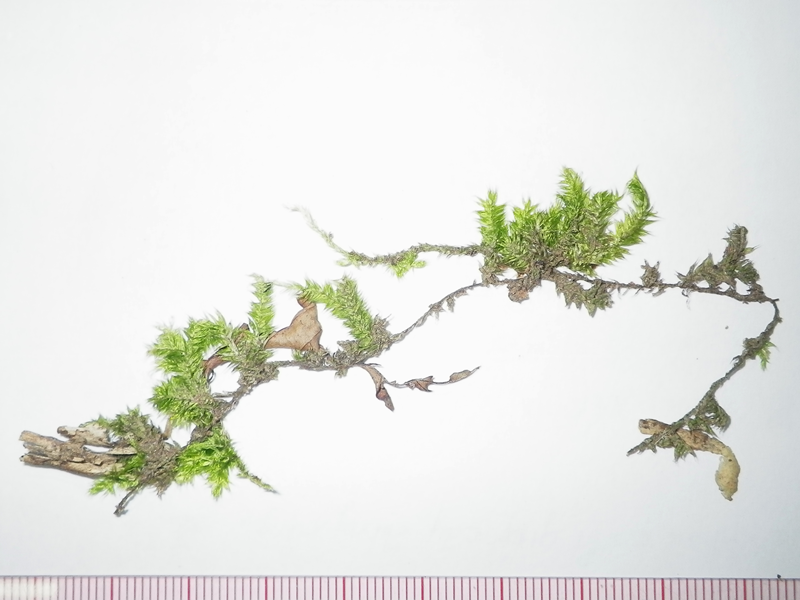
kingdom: Plantae
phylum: Bryophyta
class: Bryopsida
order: Hypnales
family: Pterobryaceae
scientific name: Pterobryaceae
